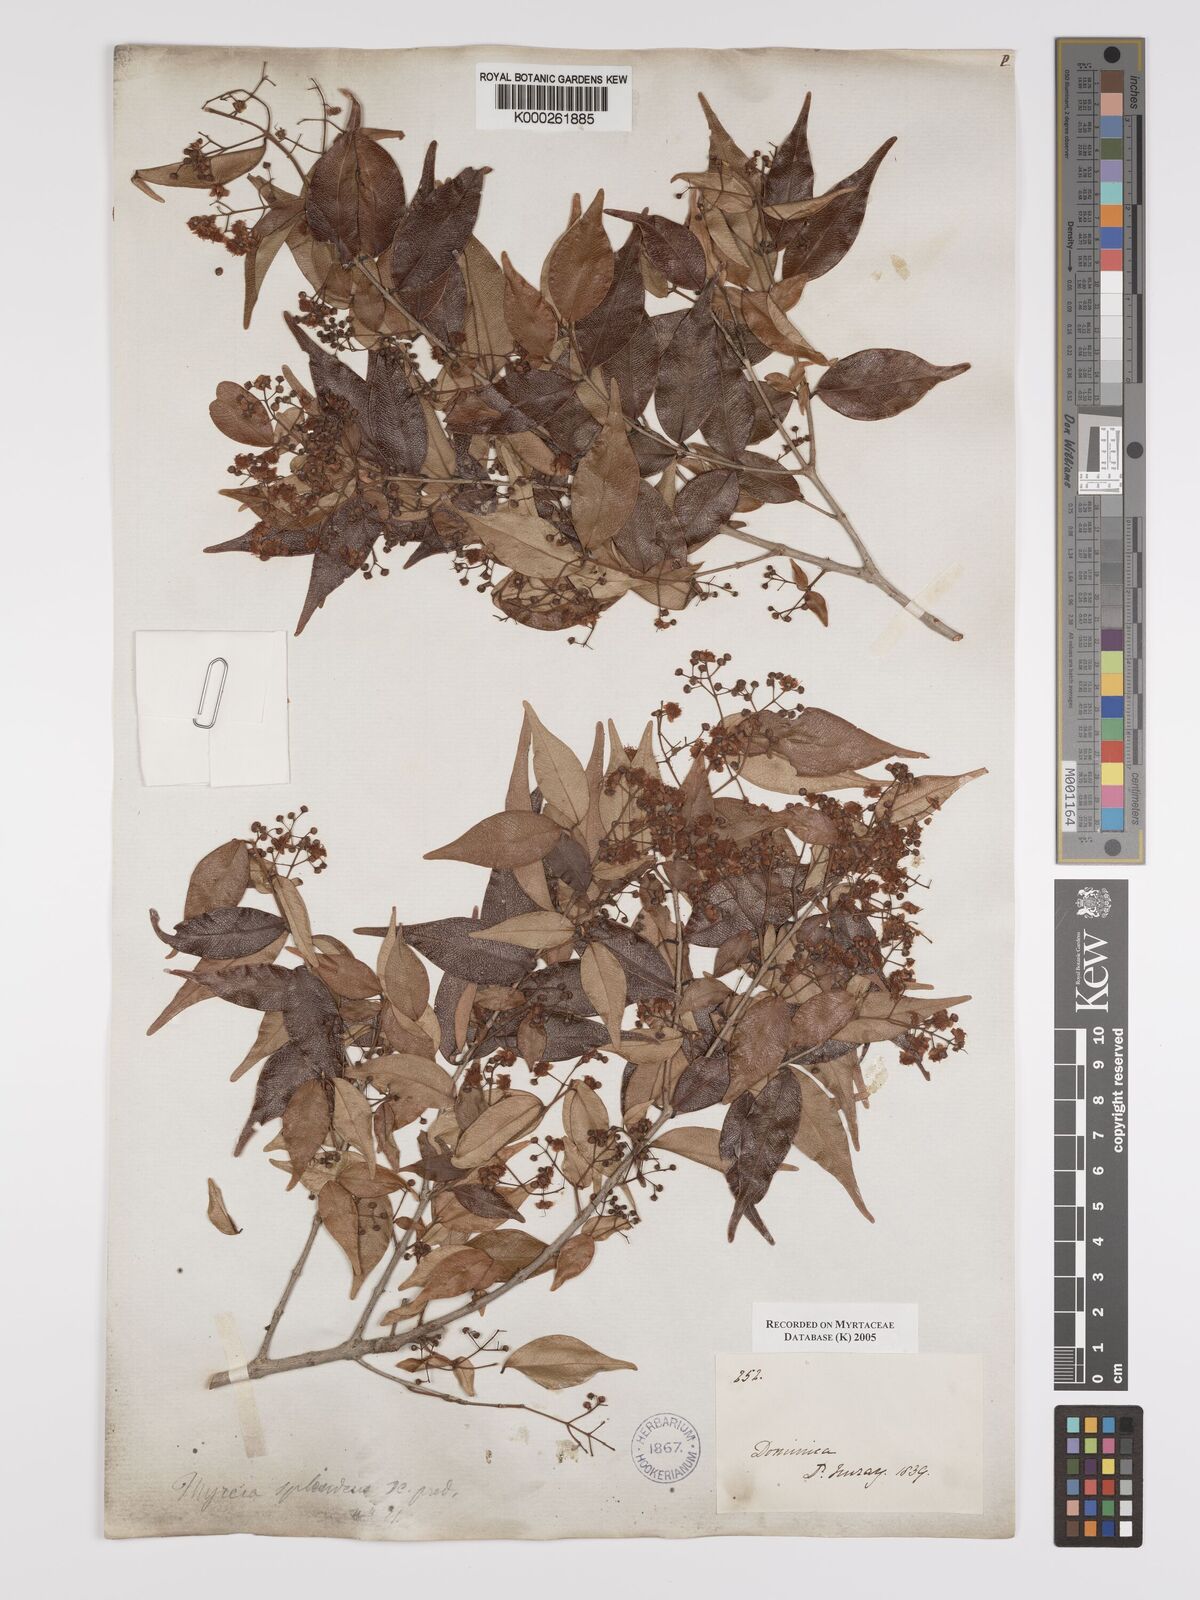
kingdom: Plantae
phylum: Tracheophyta
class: Magnoliopsida
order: Myrtales
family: Myrtaceae
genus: Myrcia
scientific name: Myrcia splendens
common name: Surinam cherry
